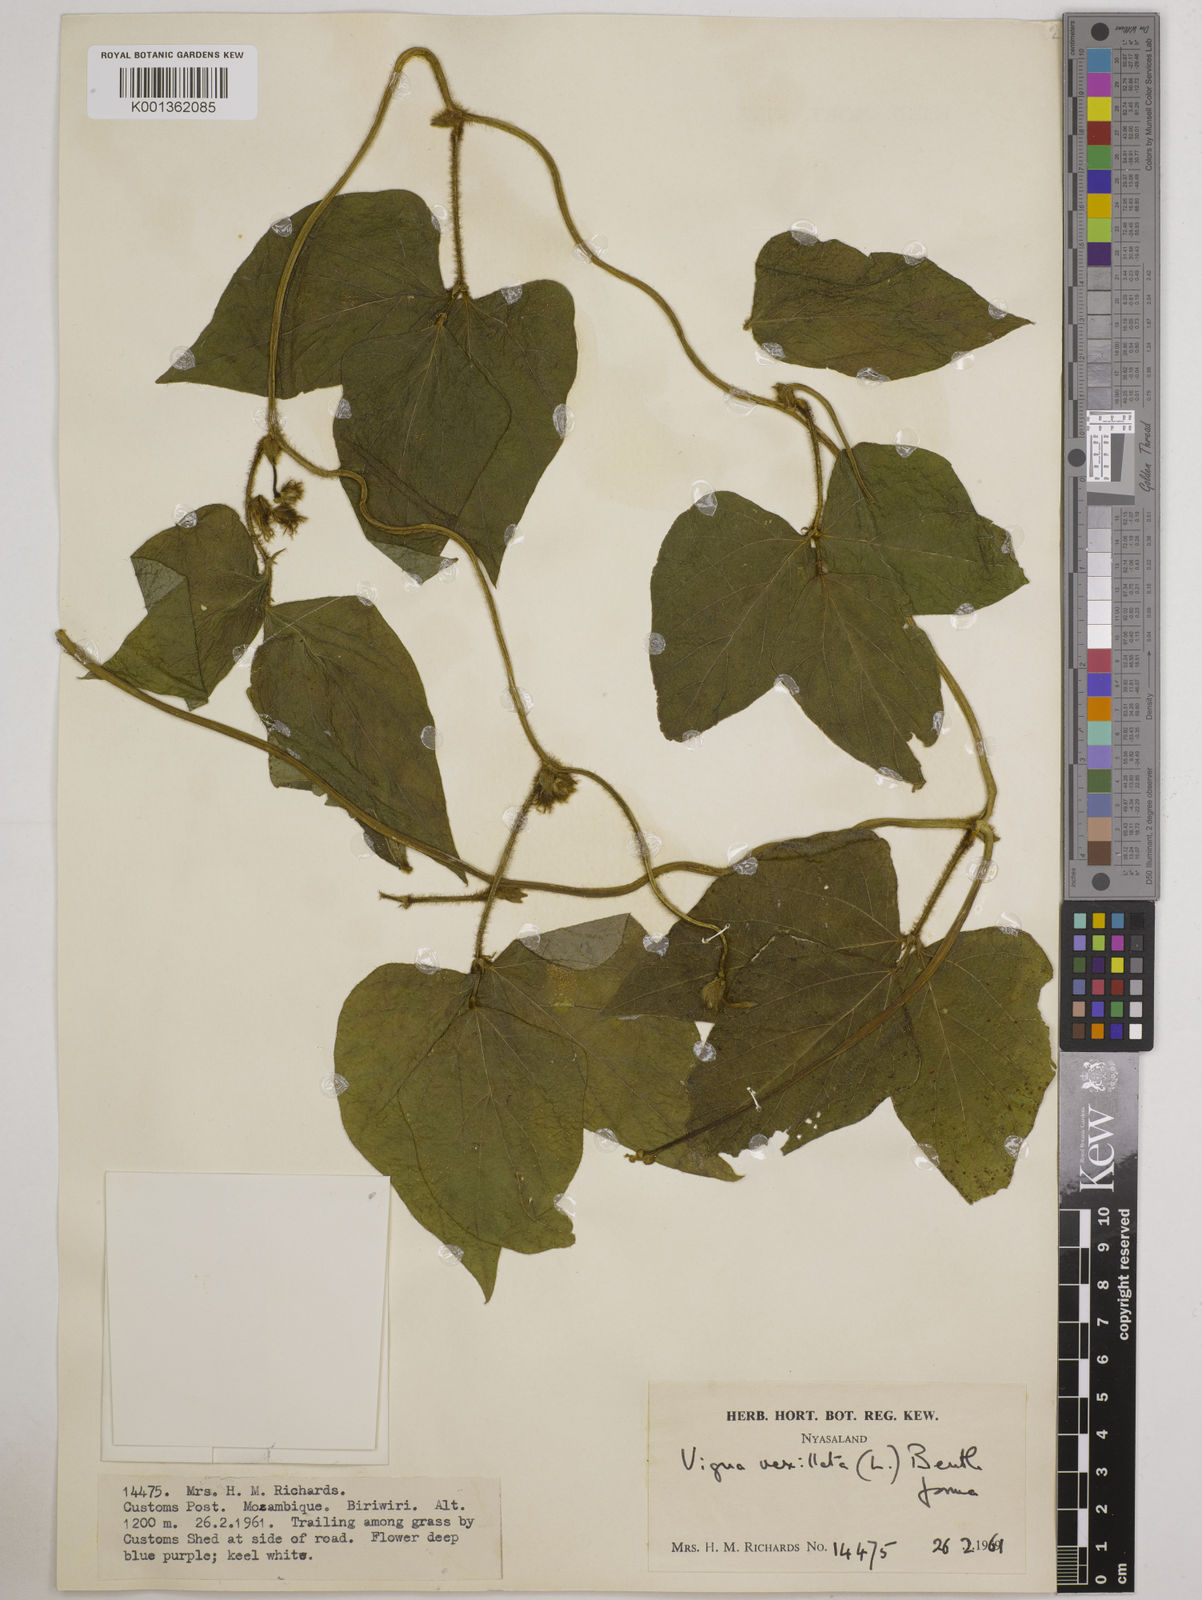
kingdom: Plantae
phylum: Tracheophyta
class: Magnoliopsida
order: Fabales
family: Fabaceae
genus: Vigna
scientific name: Vigna vexillata
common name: Zombi pea
